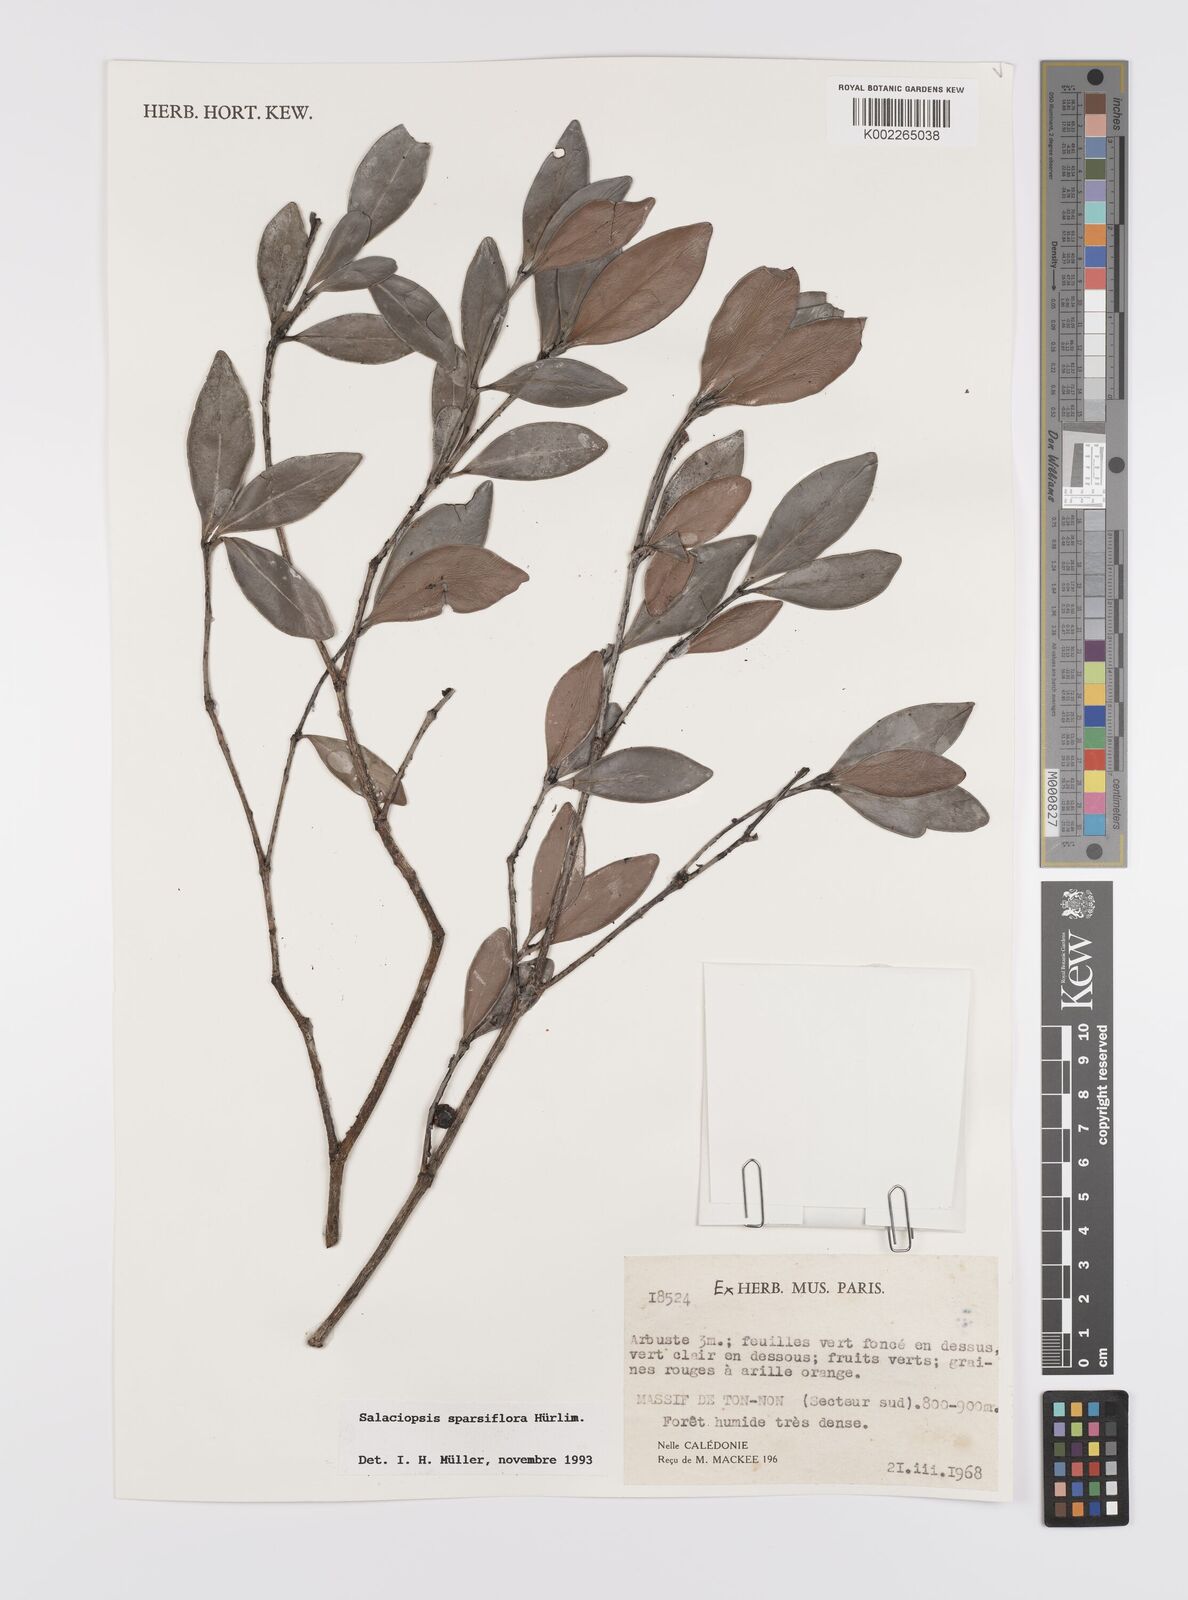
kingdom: Plantae
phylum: Tracheophyta
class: Magnoliopsida
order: Celastrales
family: Celastraceae
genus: Salaciopsis
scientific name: Salaciopsis sparsiflora
